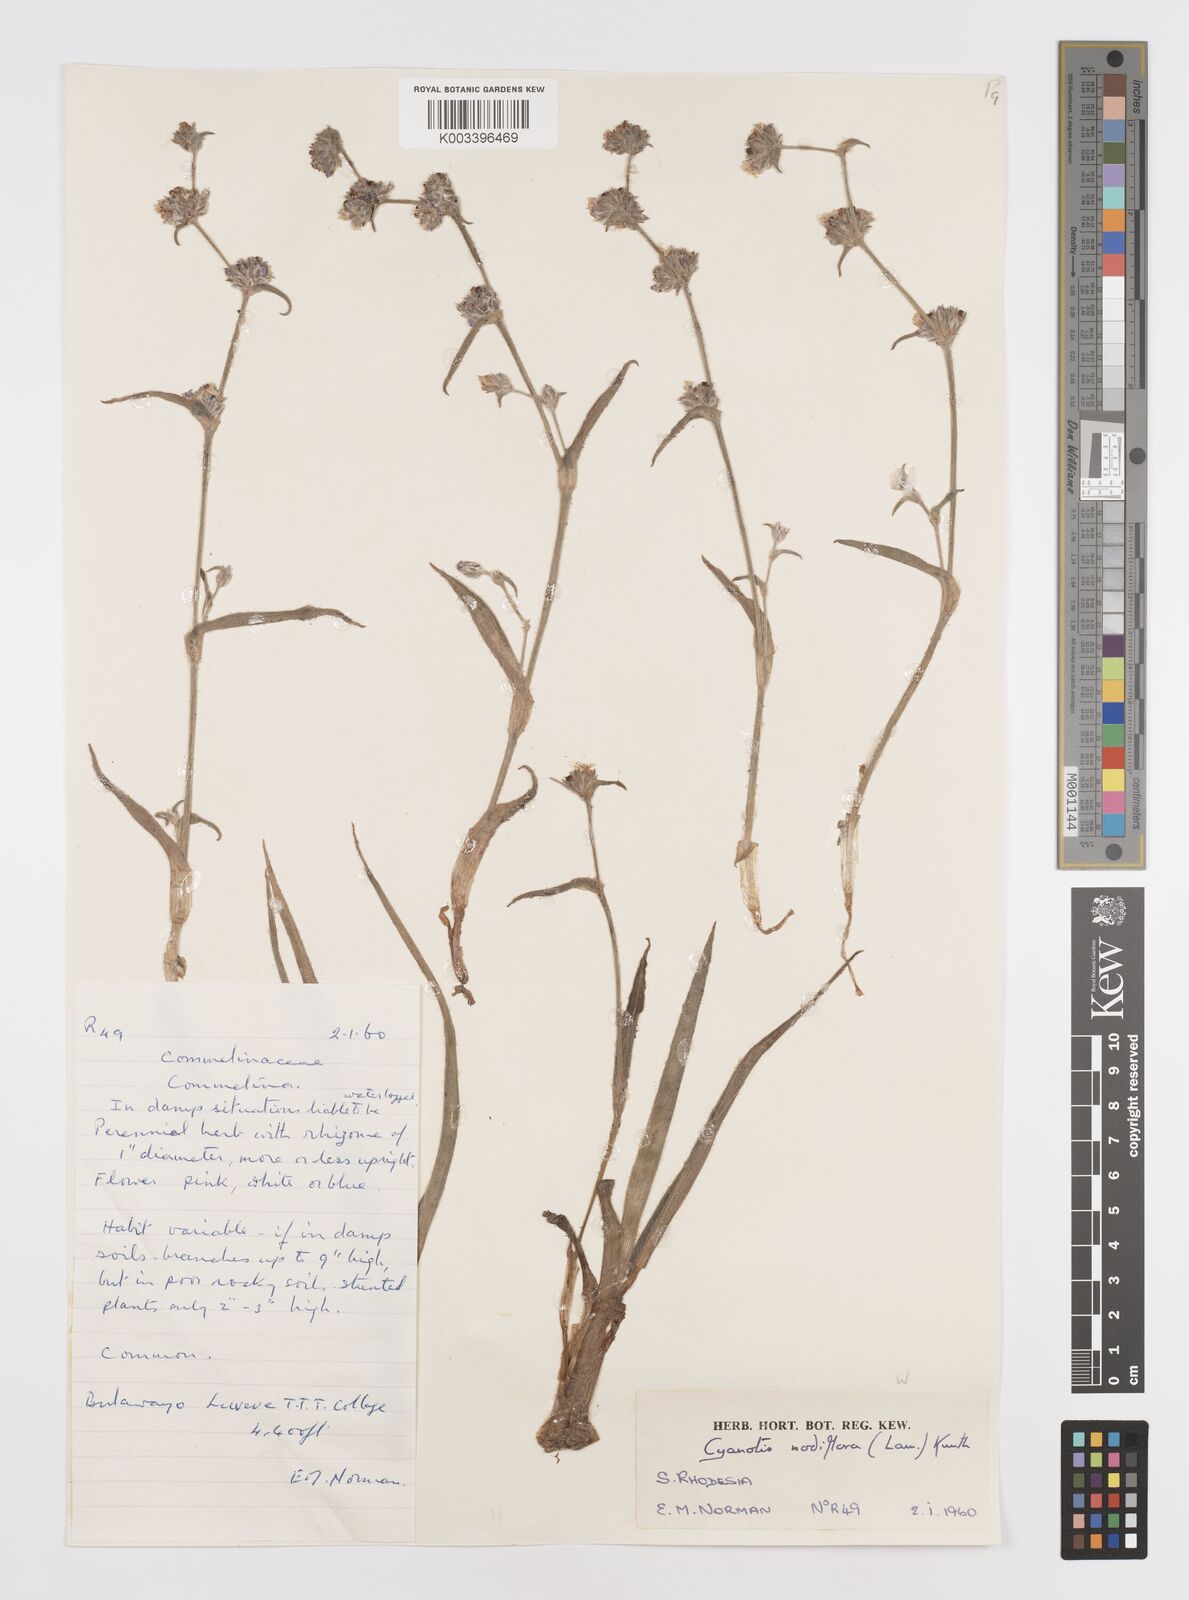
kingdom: Plantae
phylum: Tracheophyta
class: Liliopsida
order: Commelinales
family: Commelinaceae
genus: Cyanotis
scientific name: Cyanotis speciosa
